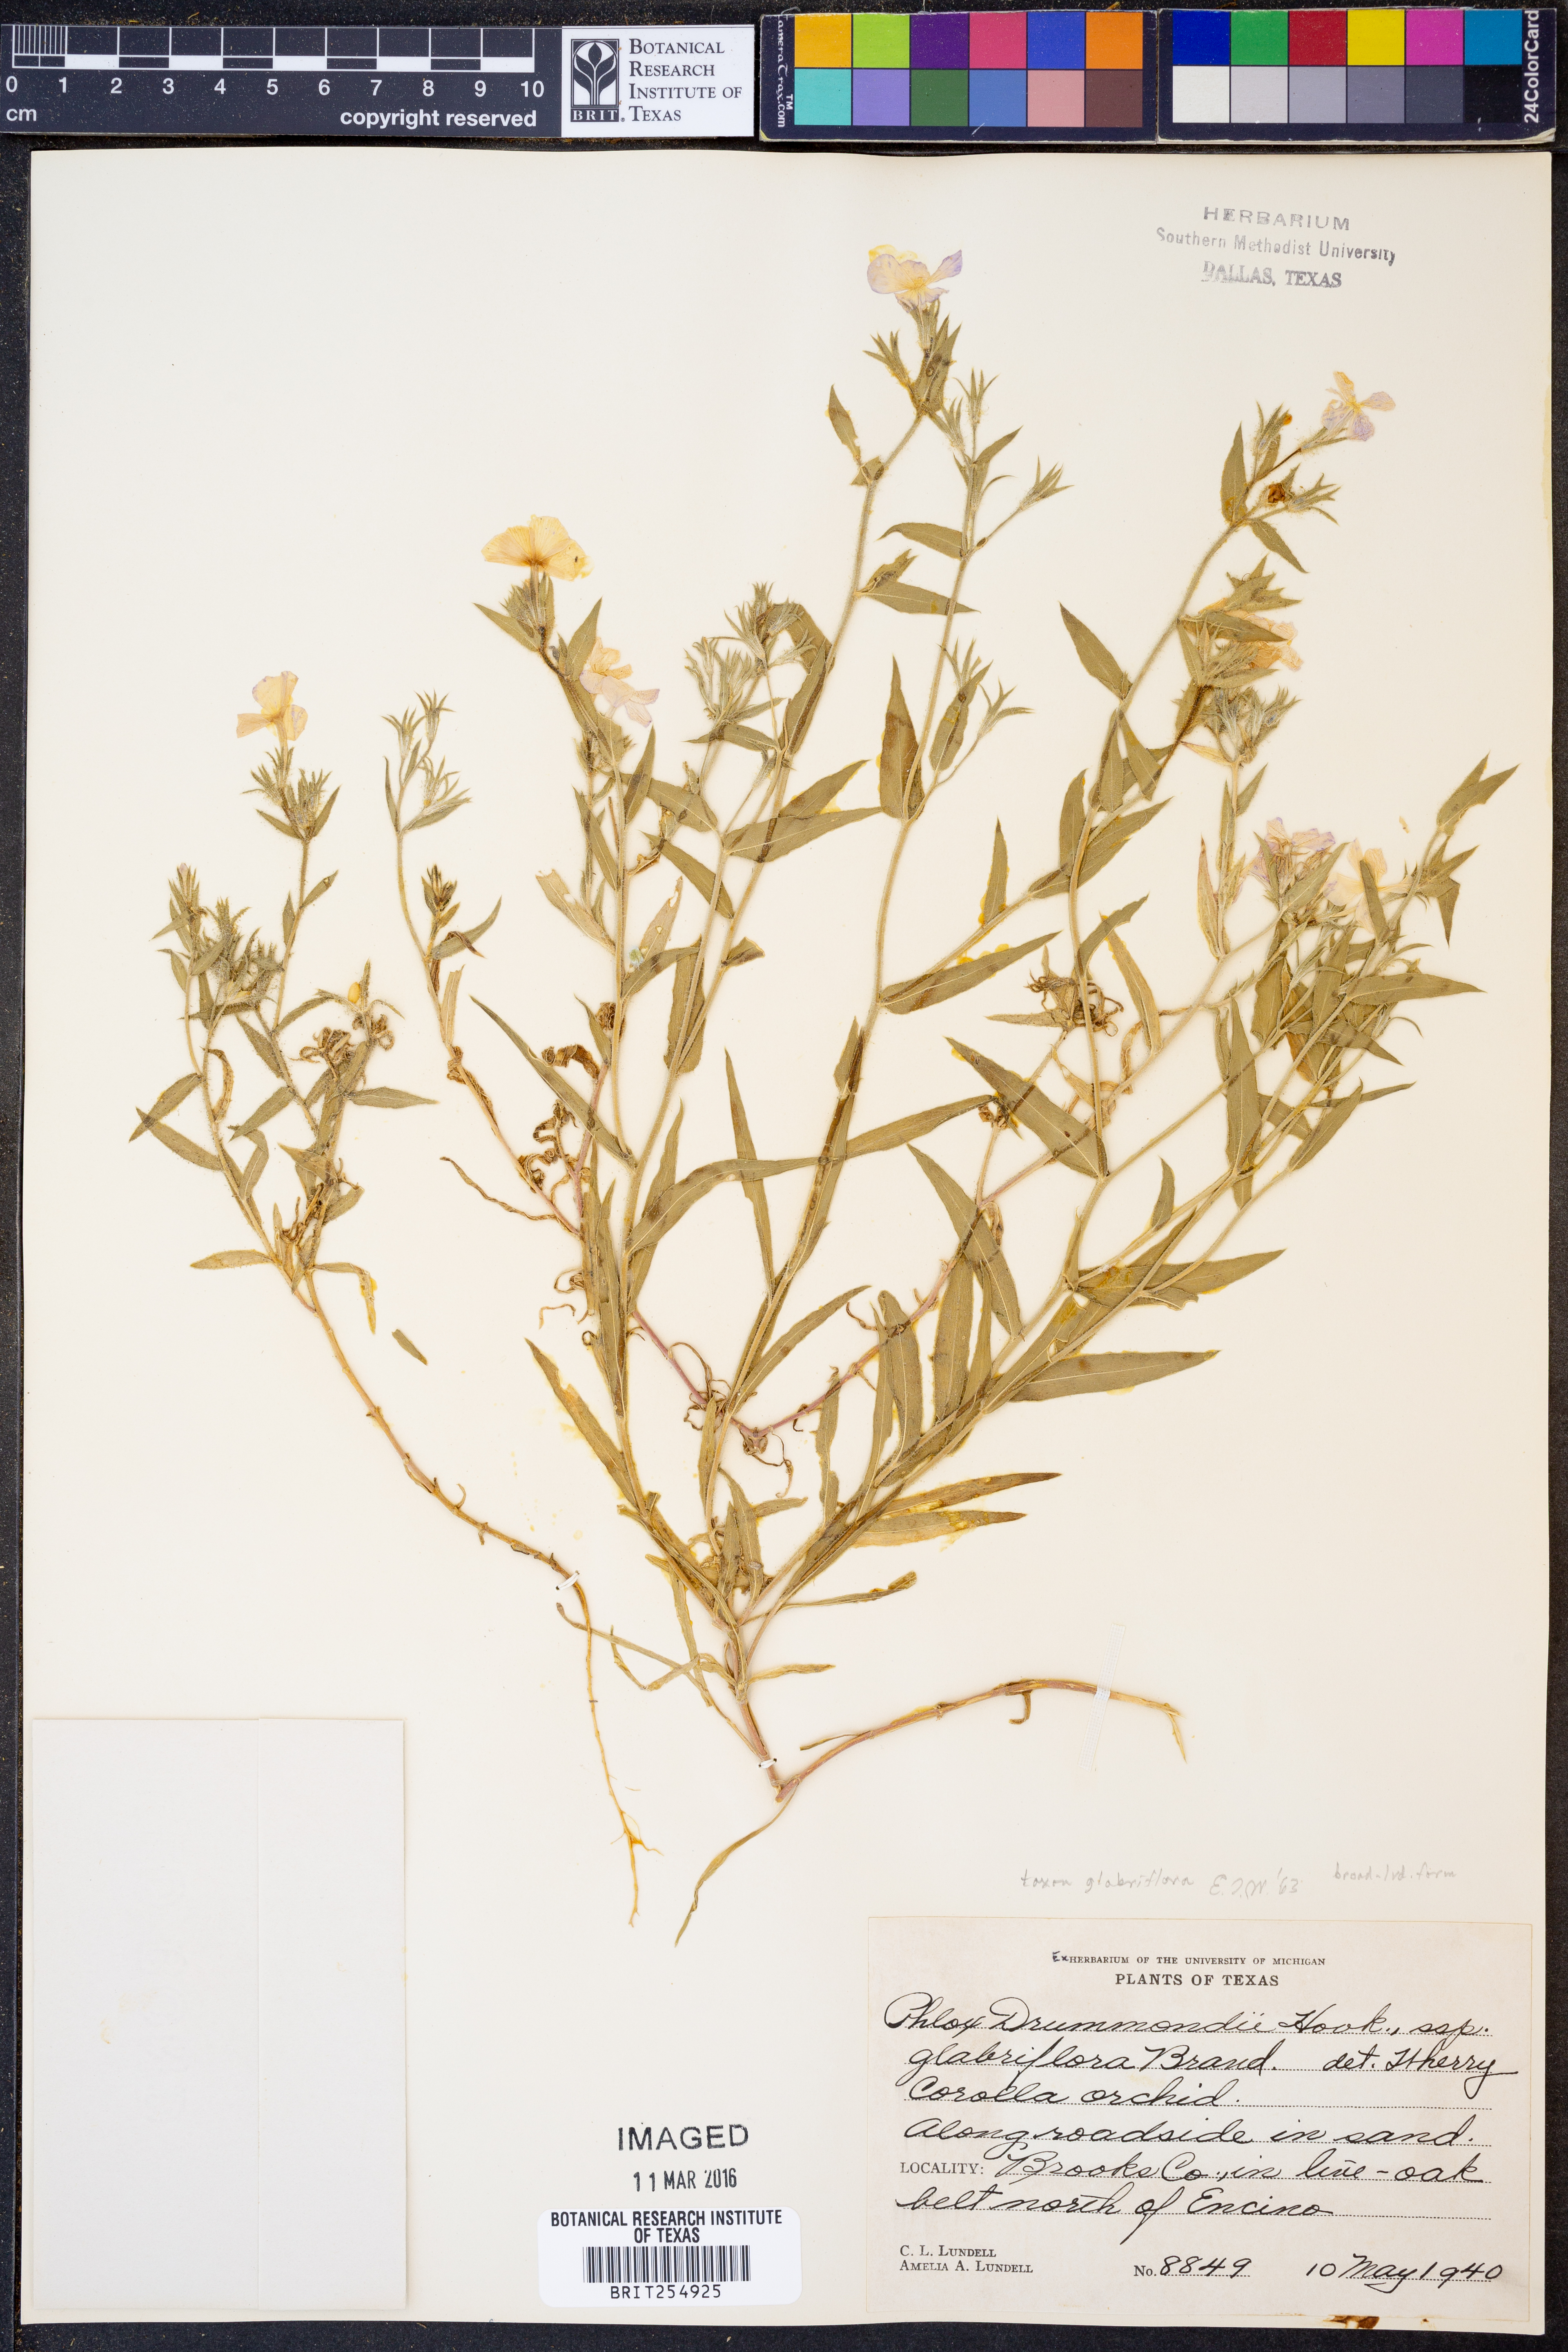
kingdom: Plantae
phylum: Tracheophyta
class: Magnoliopsida
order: Ericales
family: Polemoniaceae
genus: Phlox
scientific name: Phlox glabriflora
